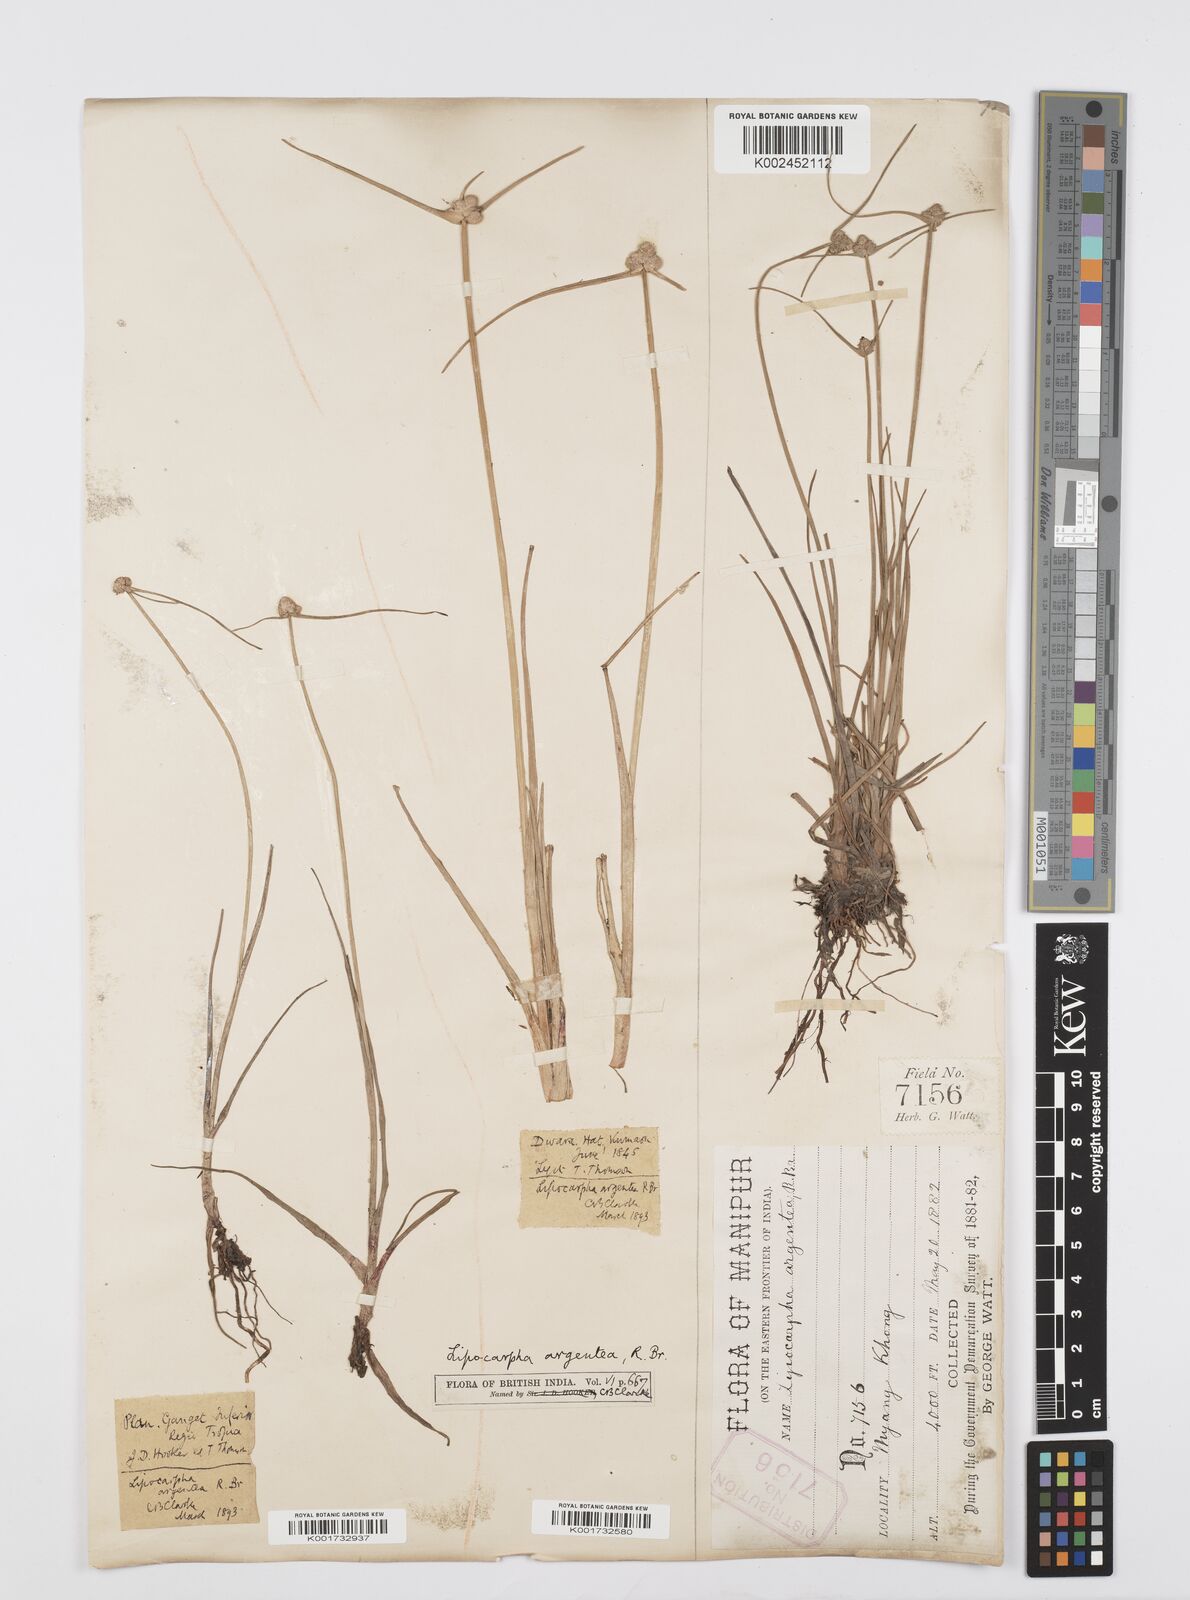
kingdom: Plantae
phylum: Tracheophyta
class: Liliopsida
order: Poales
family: Cyperaceae
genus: Cyperus
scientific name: Cyperus
